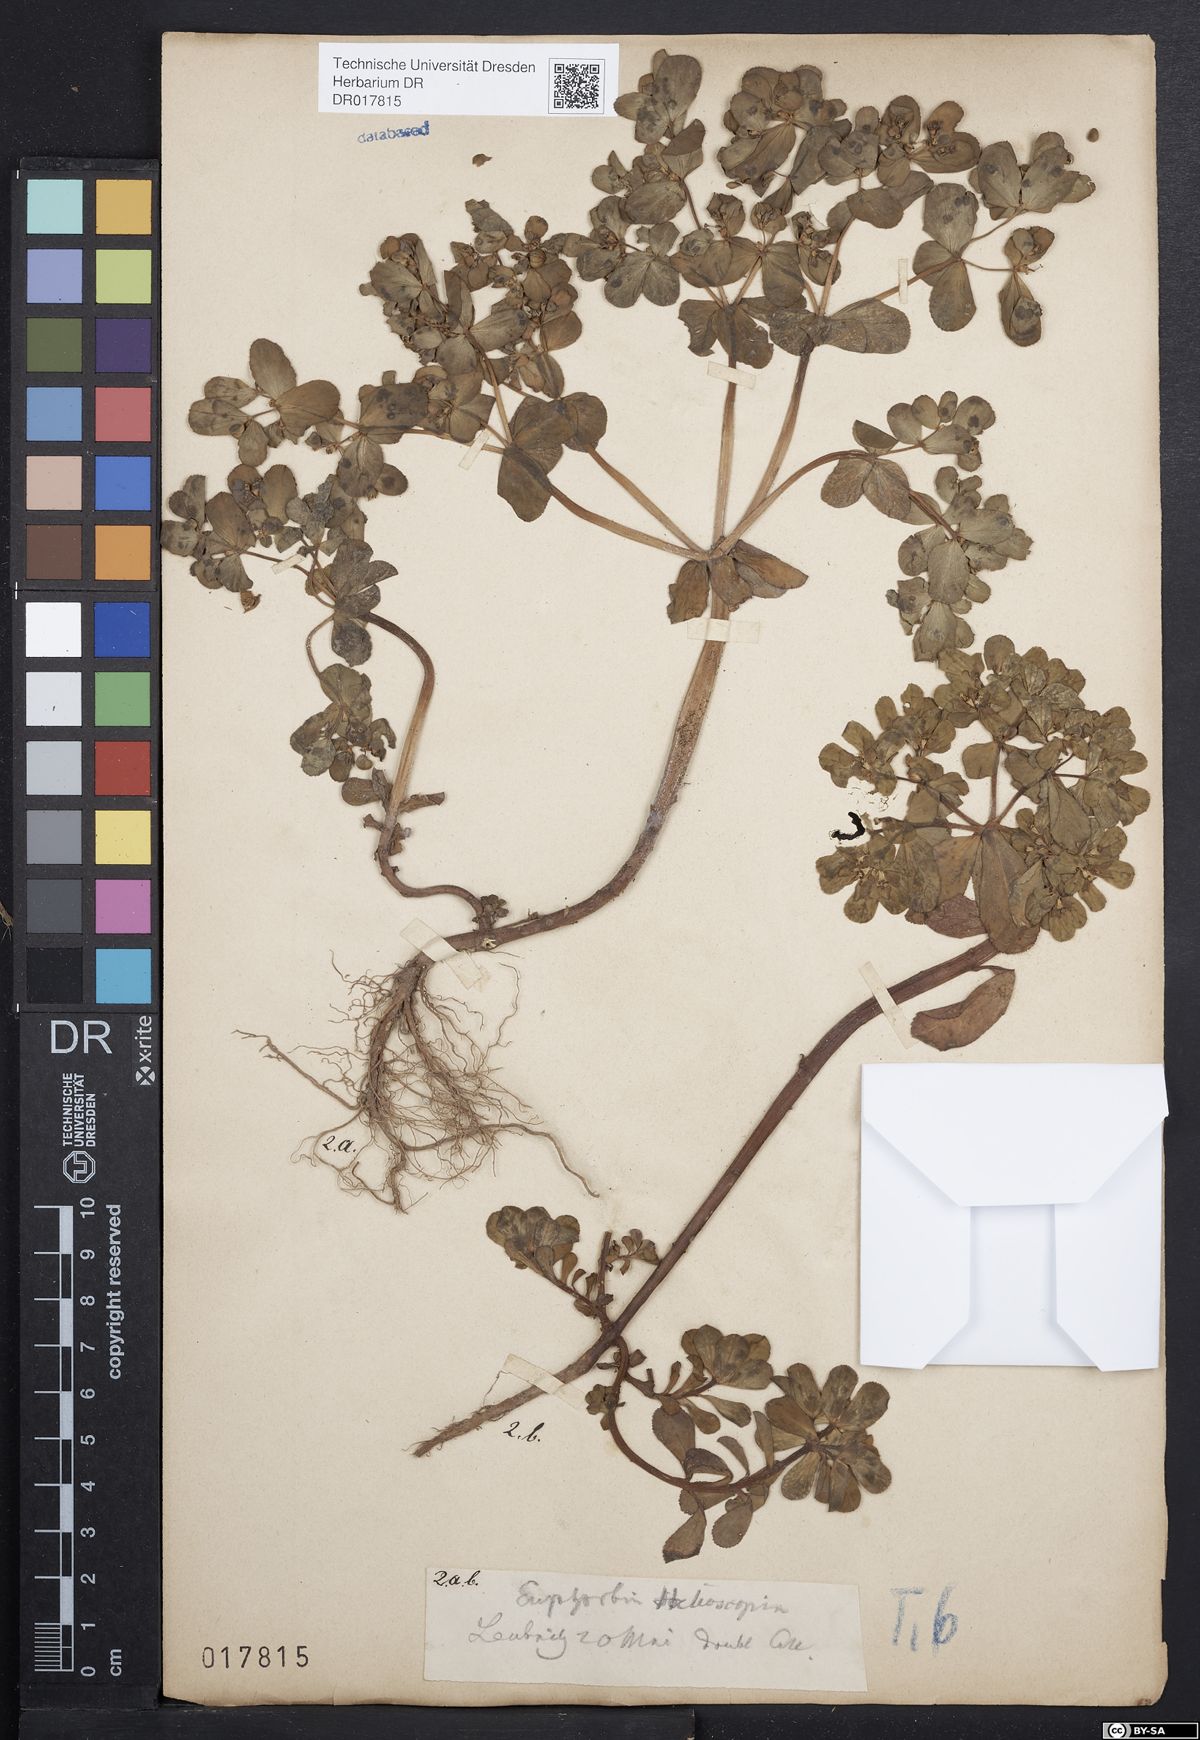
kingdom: Plantae
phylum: Tracheophyta
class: Magnoliopsida
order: Malpighiales
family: Euphorbiaceae
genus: Euphorbia
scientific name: Euphorbia helioscopia
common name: Sun spurge
